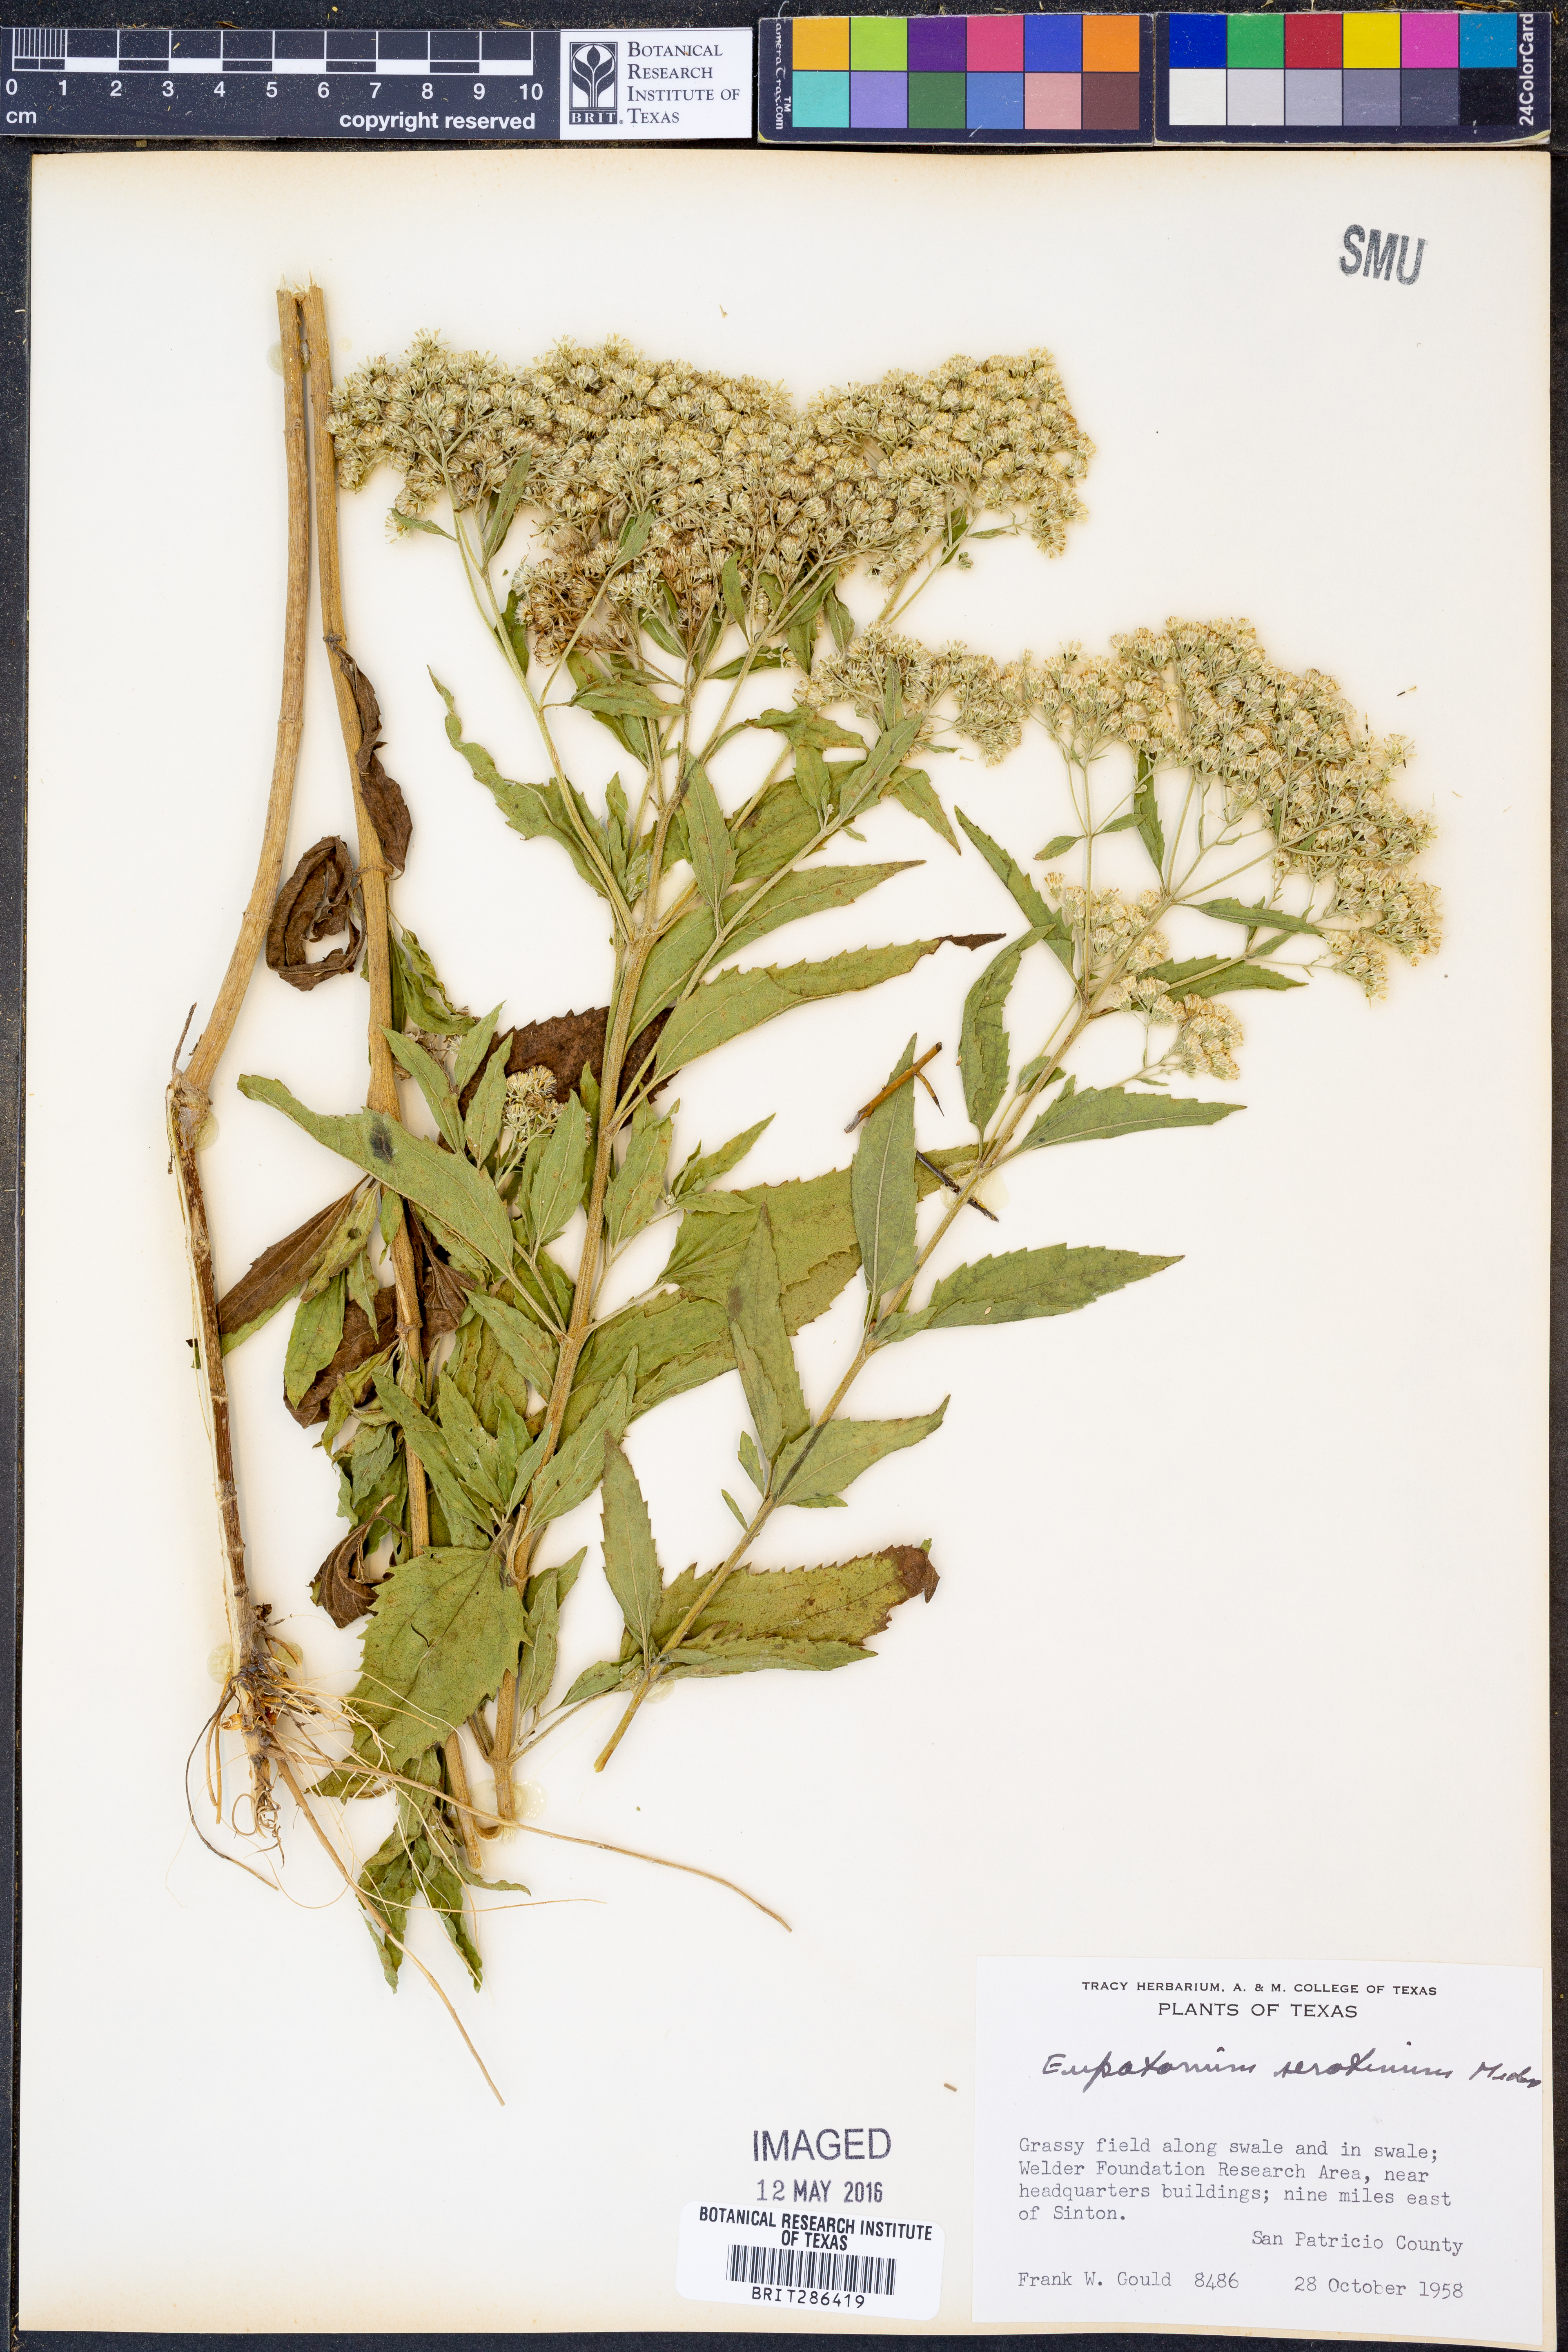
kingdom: Plantae
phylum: Tracheophyta
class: Magnoliopsida
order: Asterales
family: Asteraceae
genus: Eupatorium
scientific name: Eupatorium serotinum
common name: Late boneset
